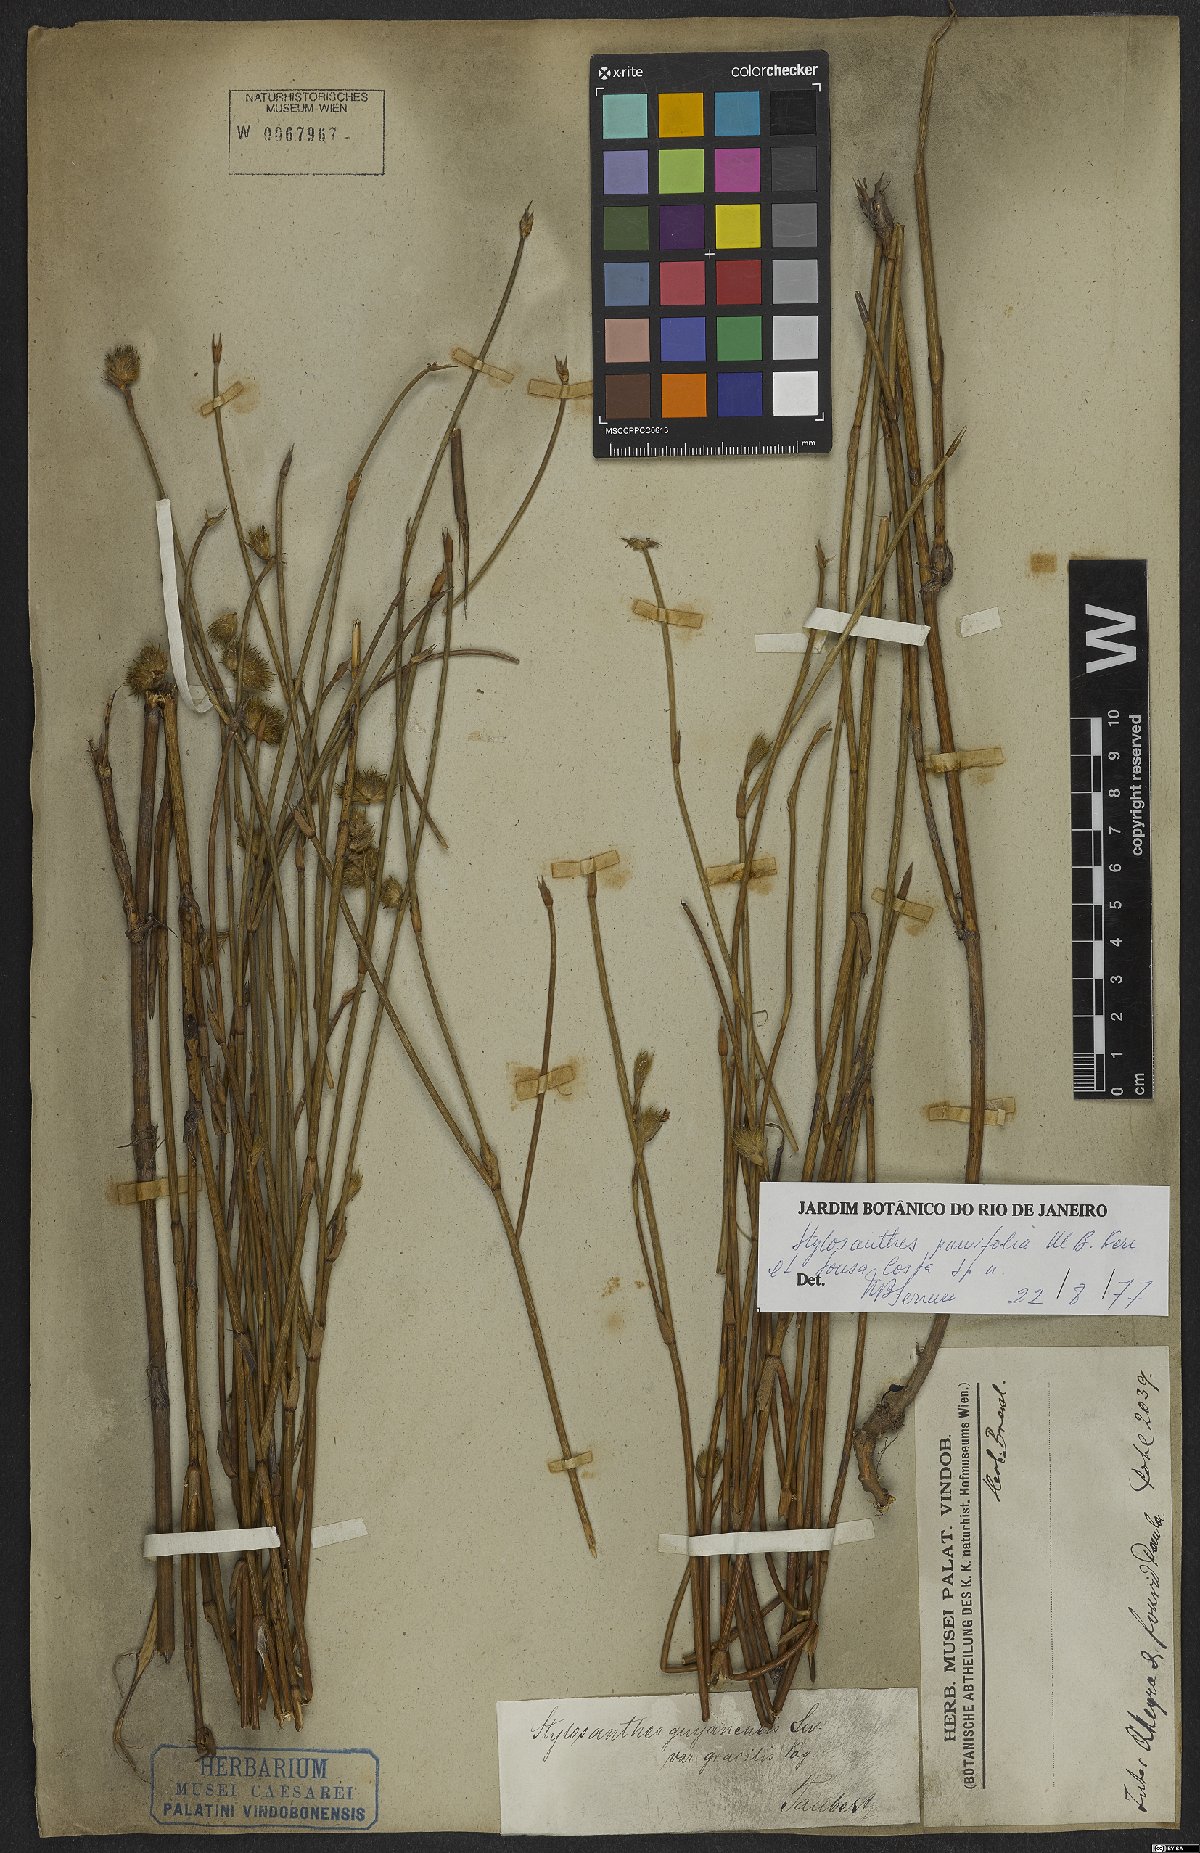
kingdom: Plantae
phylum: Tracheophyta
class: Magnoliopsida
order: Fabales
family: Fabaceae
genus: Stylosanthes
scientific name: Stylosanthes
